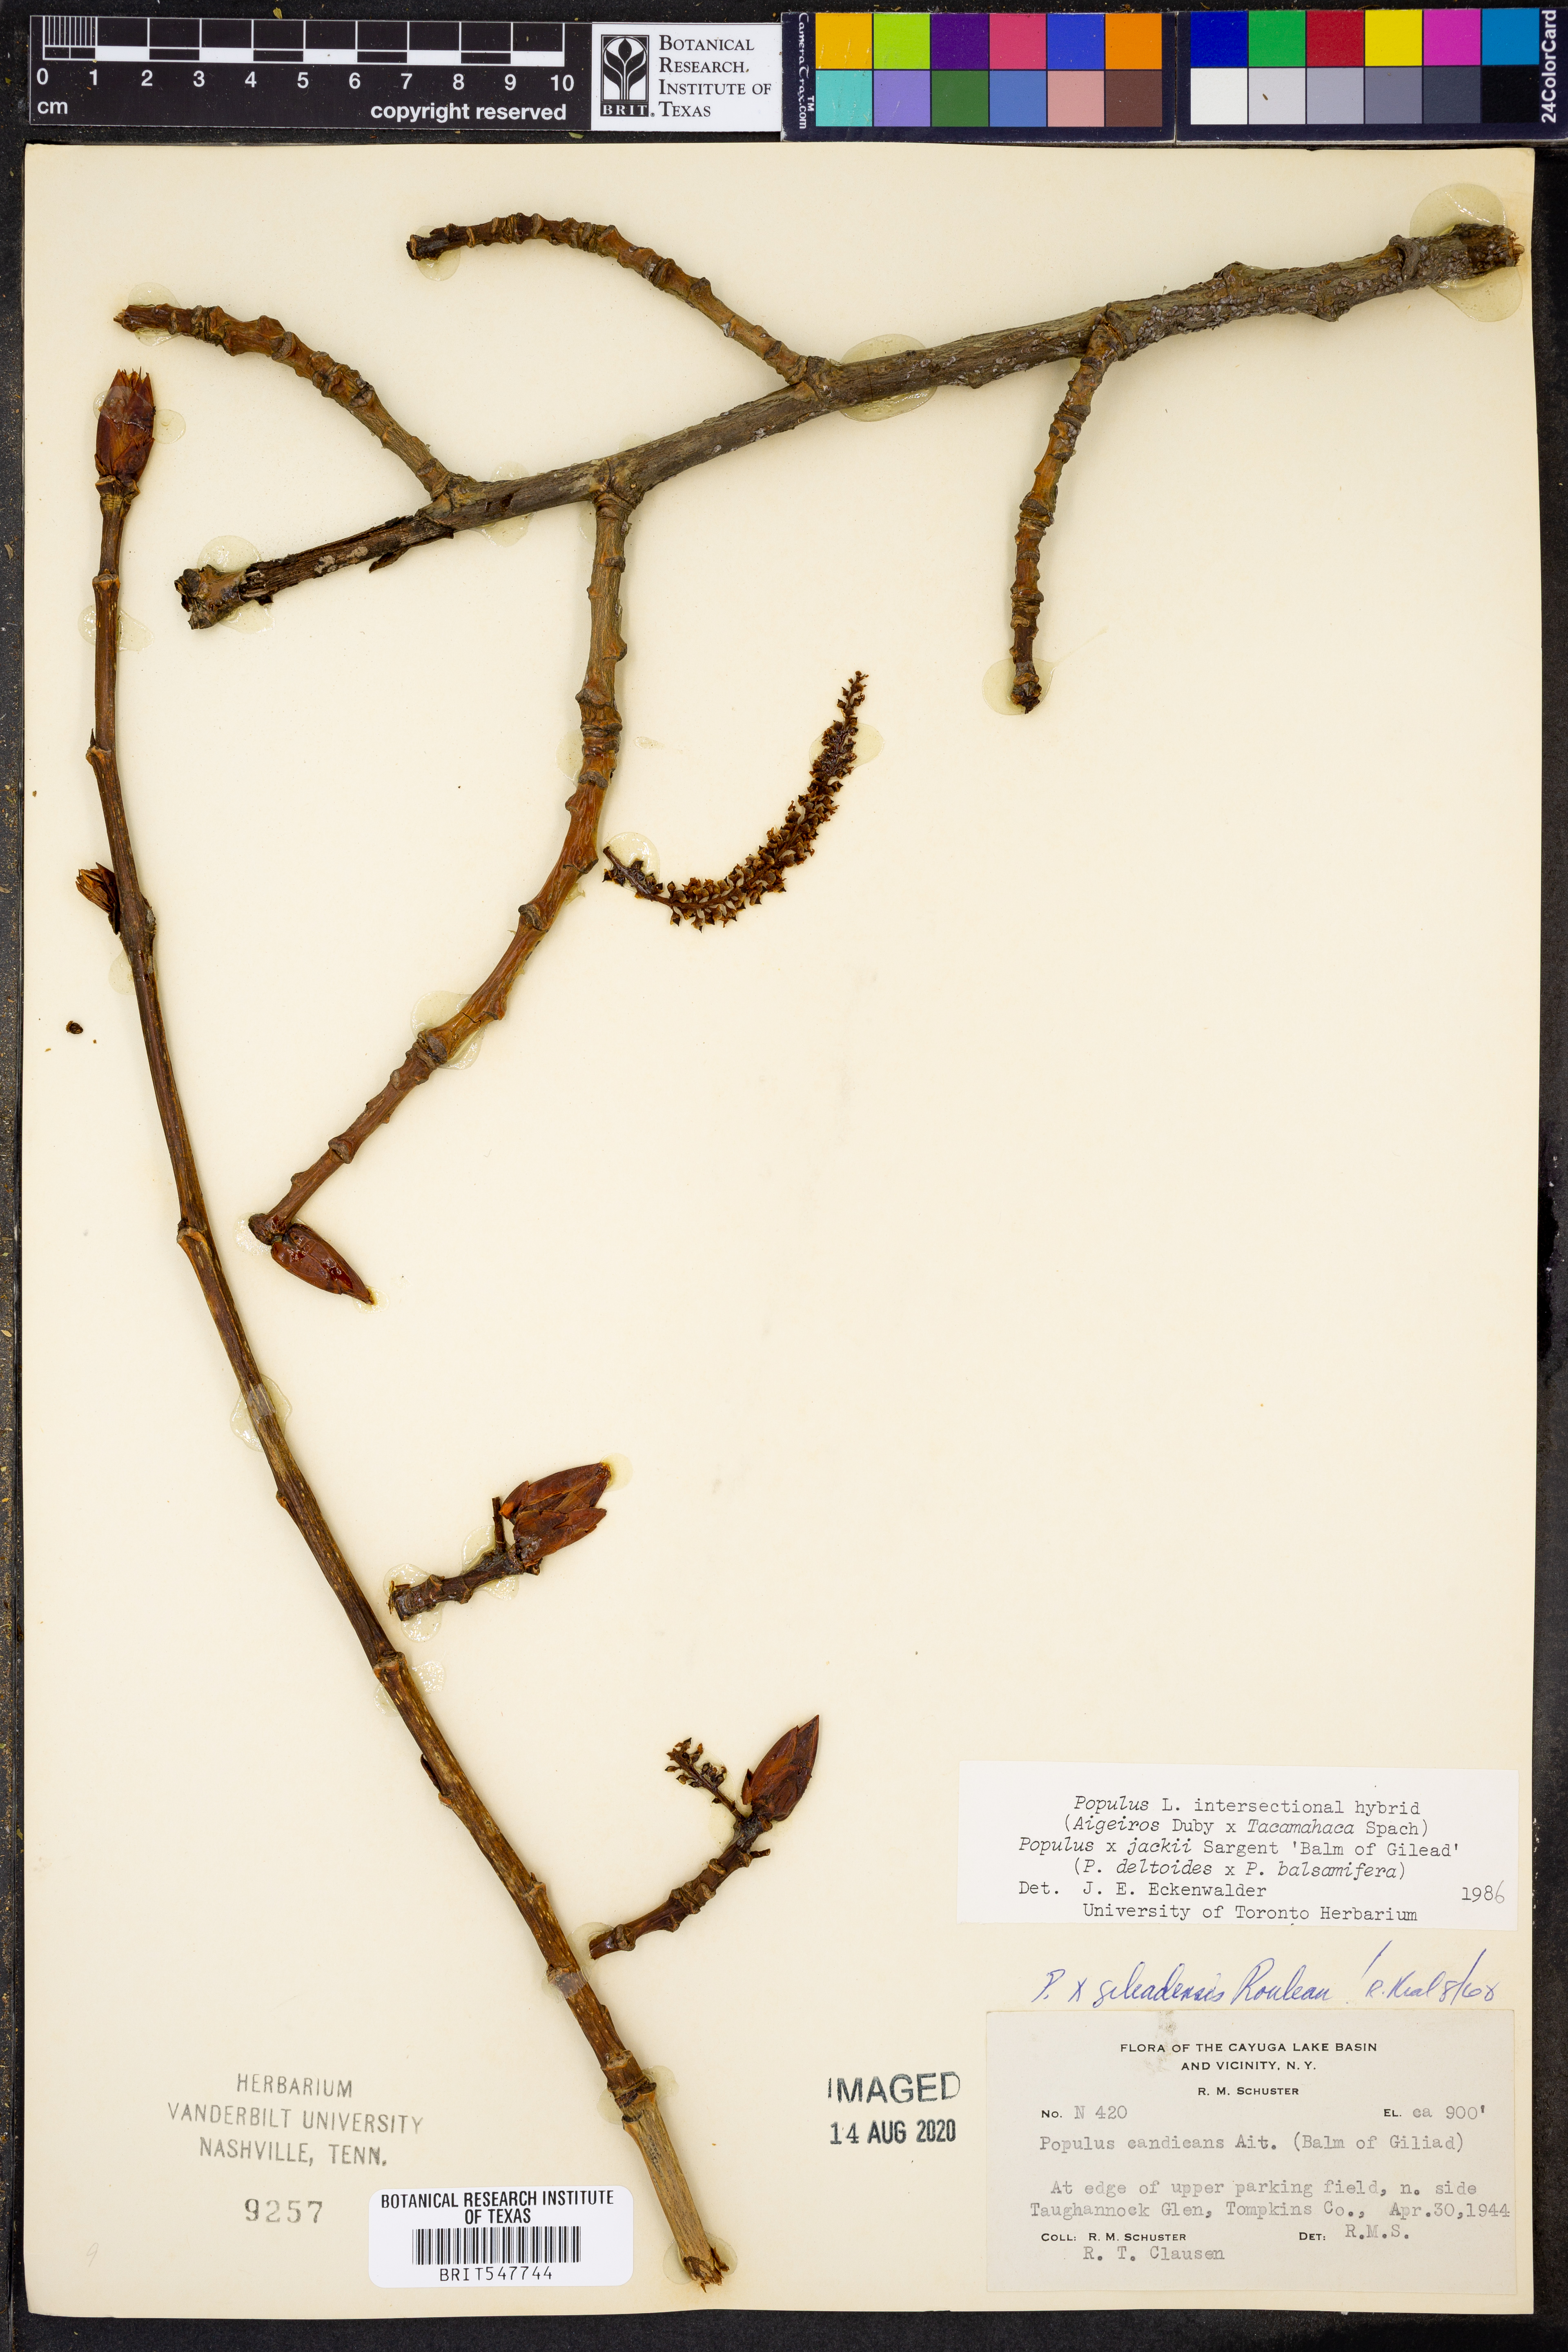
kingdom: Plantae
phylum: Tracheophyta
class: Magnoliopsida
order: Malpighiales
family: Salicaceae
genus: Populus
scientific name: Populus
